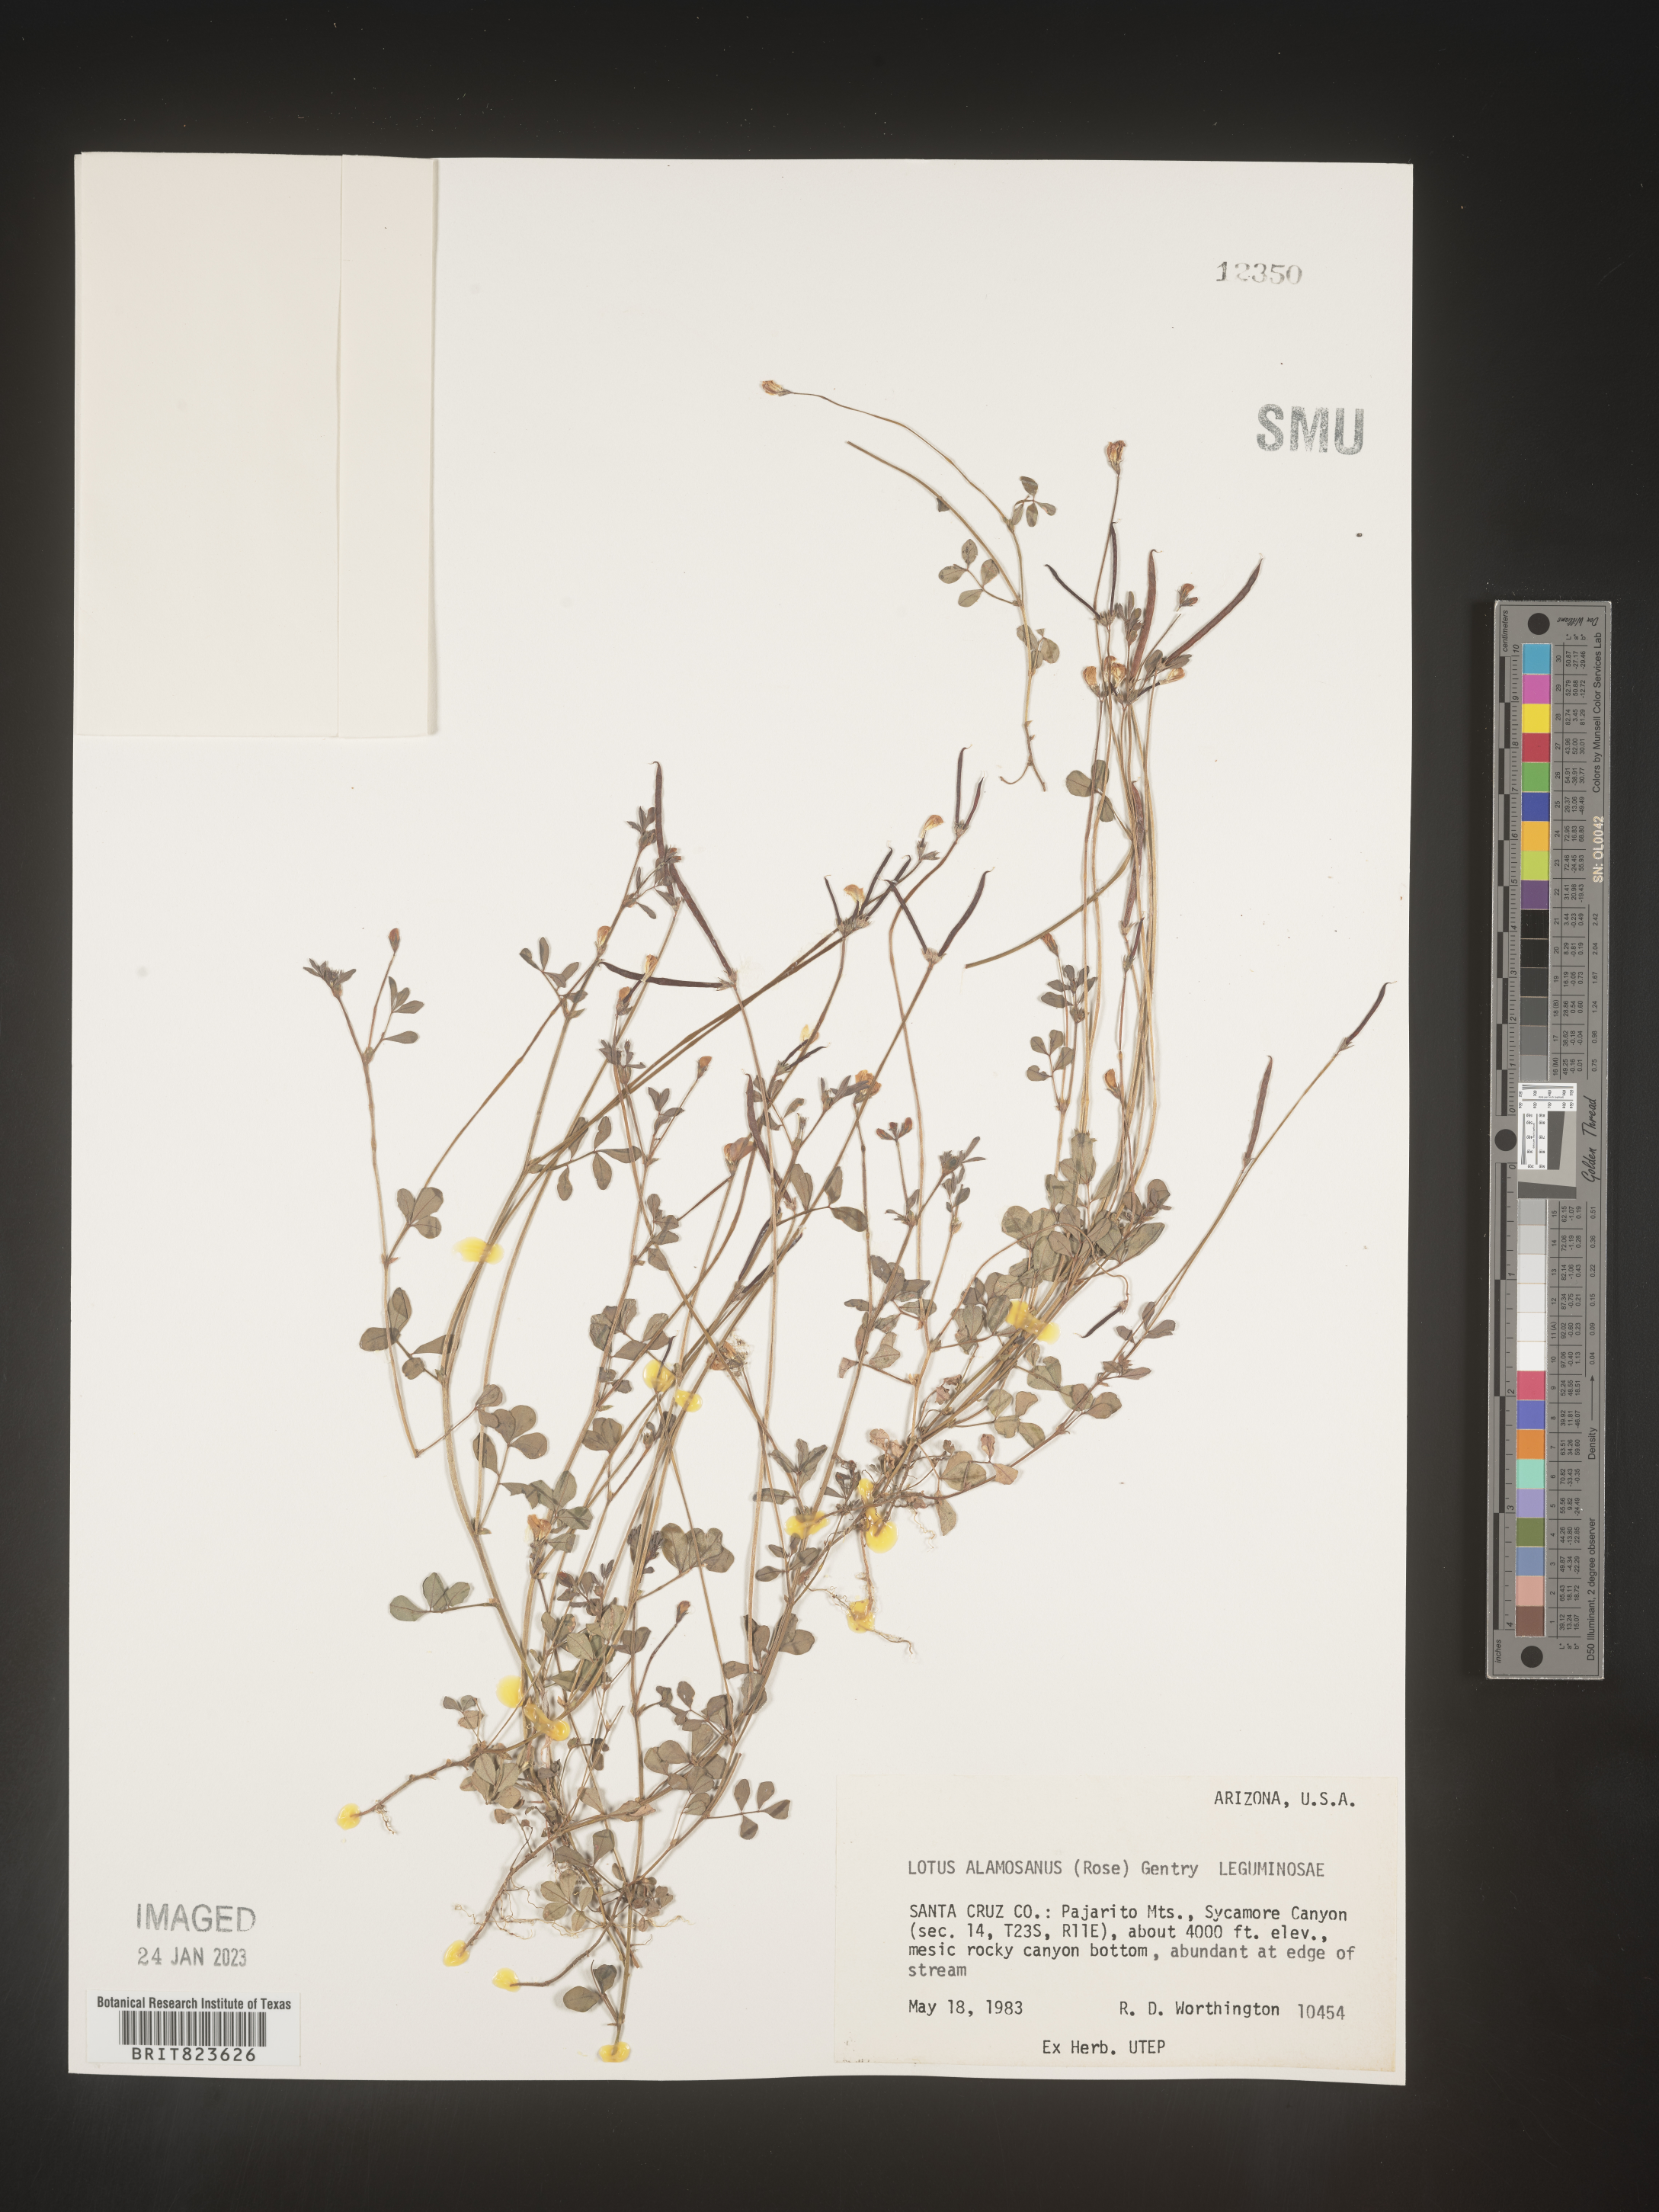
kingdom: Plantae
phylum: Tracheophyta
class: Magnoliopsida
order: Fabales
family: Fabaceae
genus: Lotus
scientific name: Lotus
